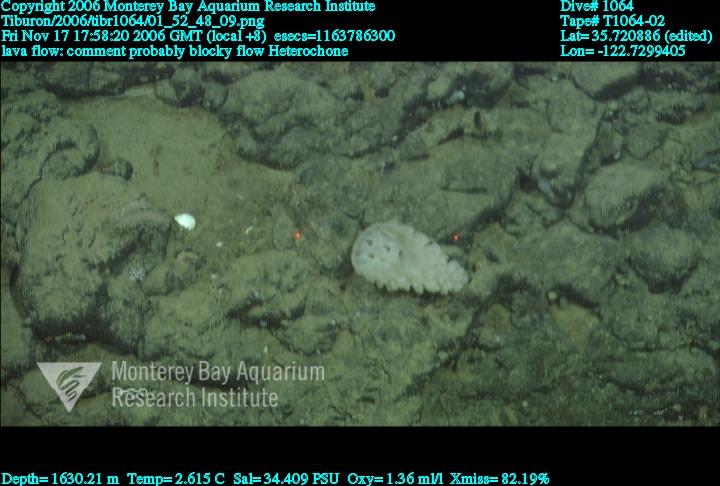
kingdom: Animalia
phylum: Porifera
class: Hexactinellida
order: Sceptrulophora
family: Aphrocallistidae
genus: Heterochone
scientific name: Heterochone
